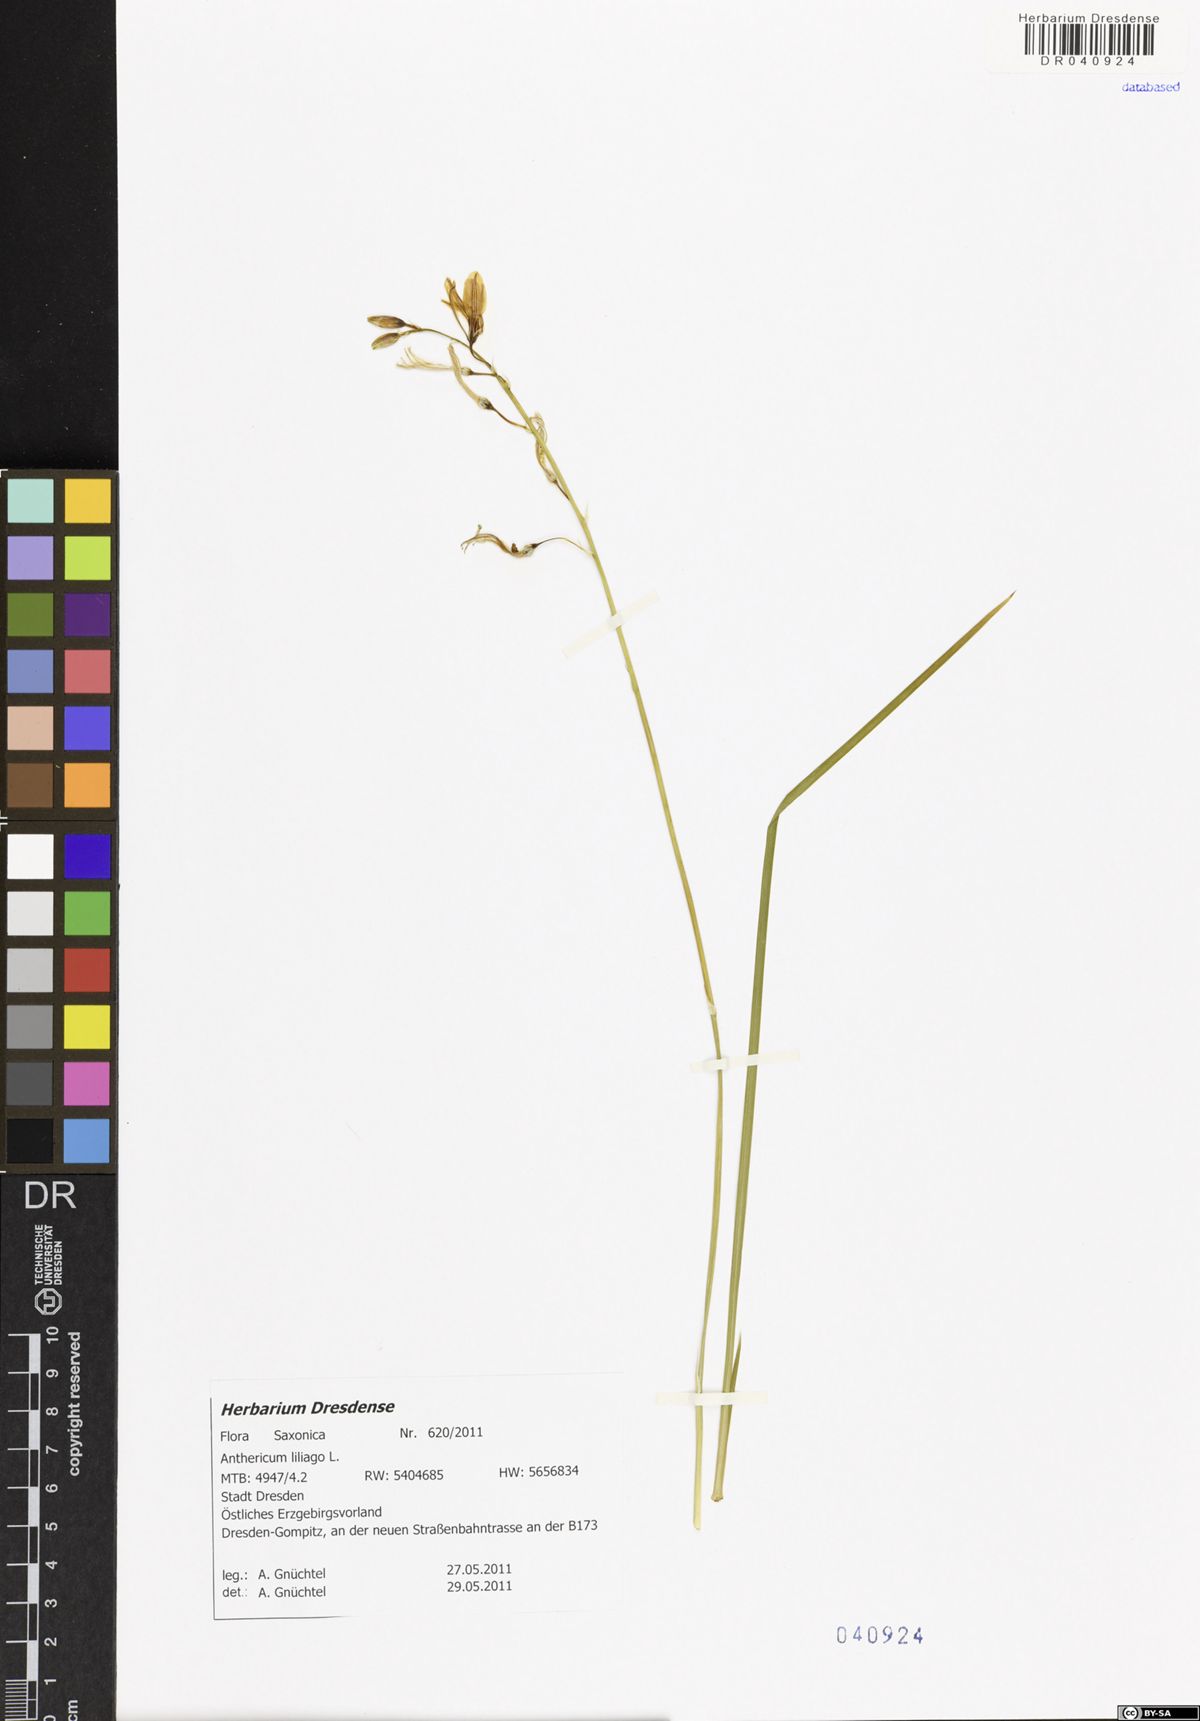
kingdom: Plantae
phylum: Tracheophyta
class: Liliopsida
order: Asparagales
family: Asparagaceae
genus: Anthericum
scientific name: Anthericum liliago
